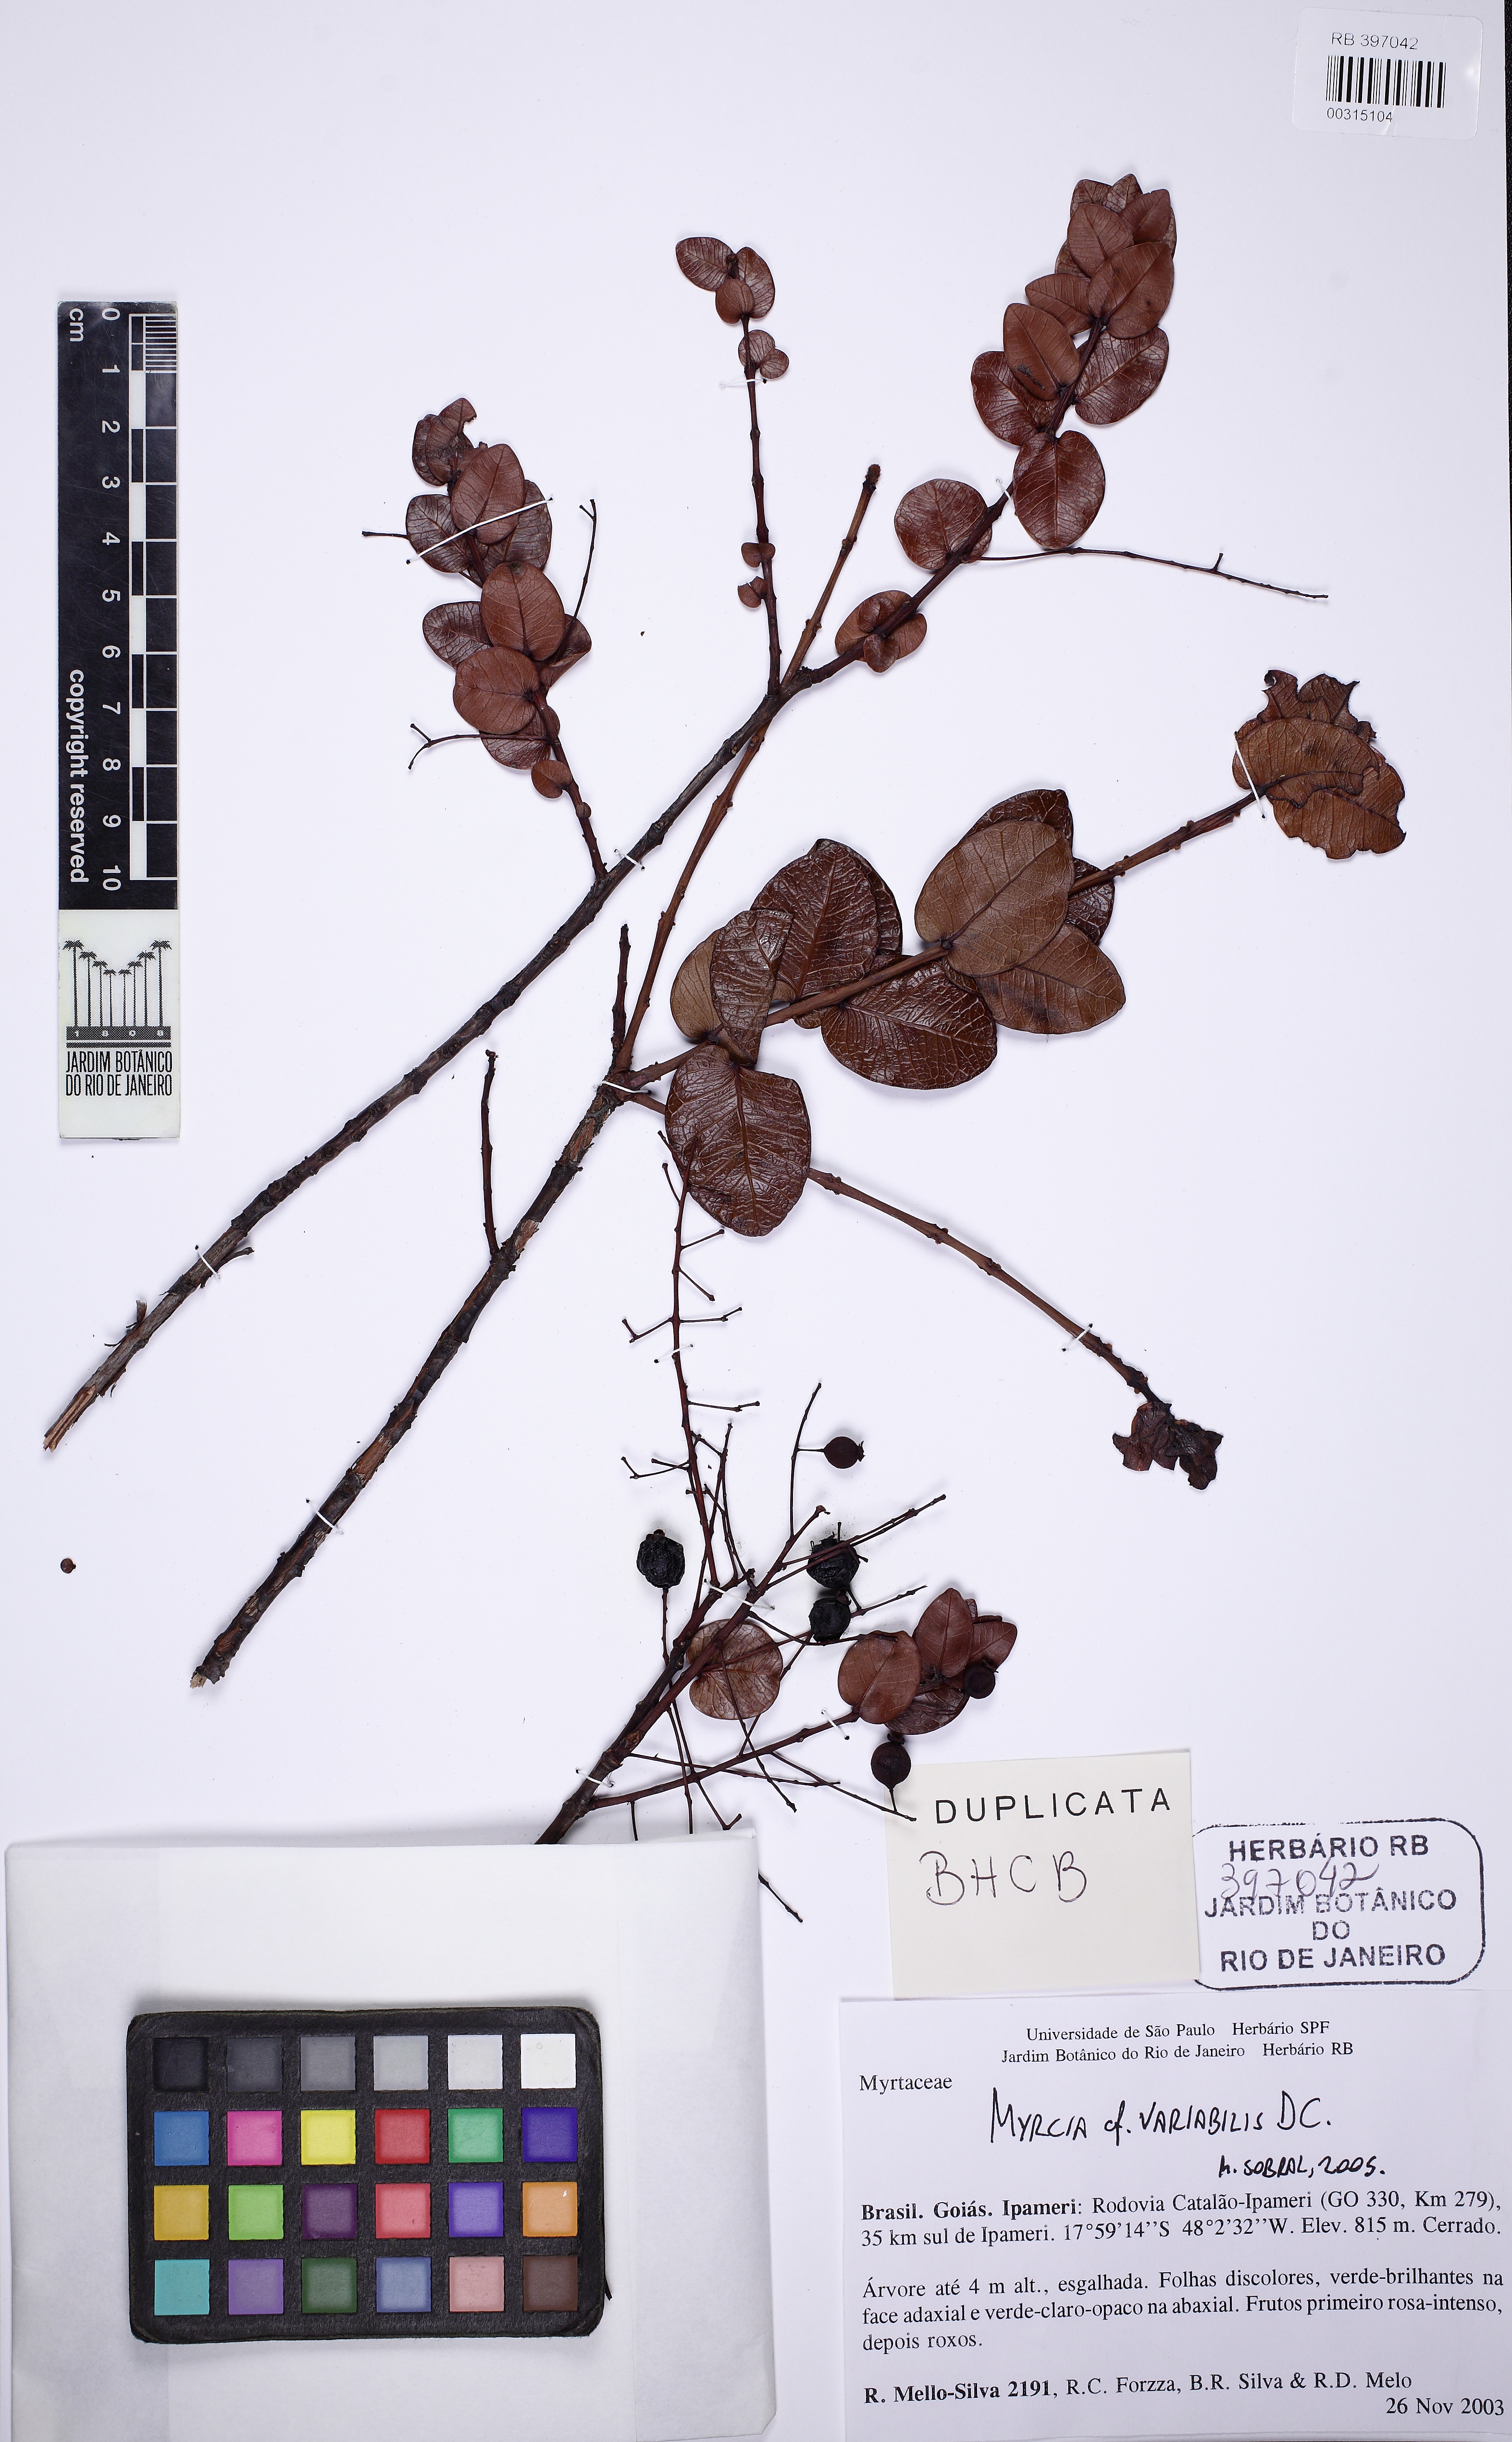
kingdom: Plantae
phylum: Tracheophyta
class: Magnoliopsida
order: Myrtales
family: Myrtaceae
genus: Myrcia
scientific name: Myrcia variabilis
